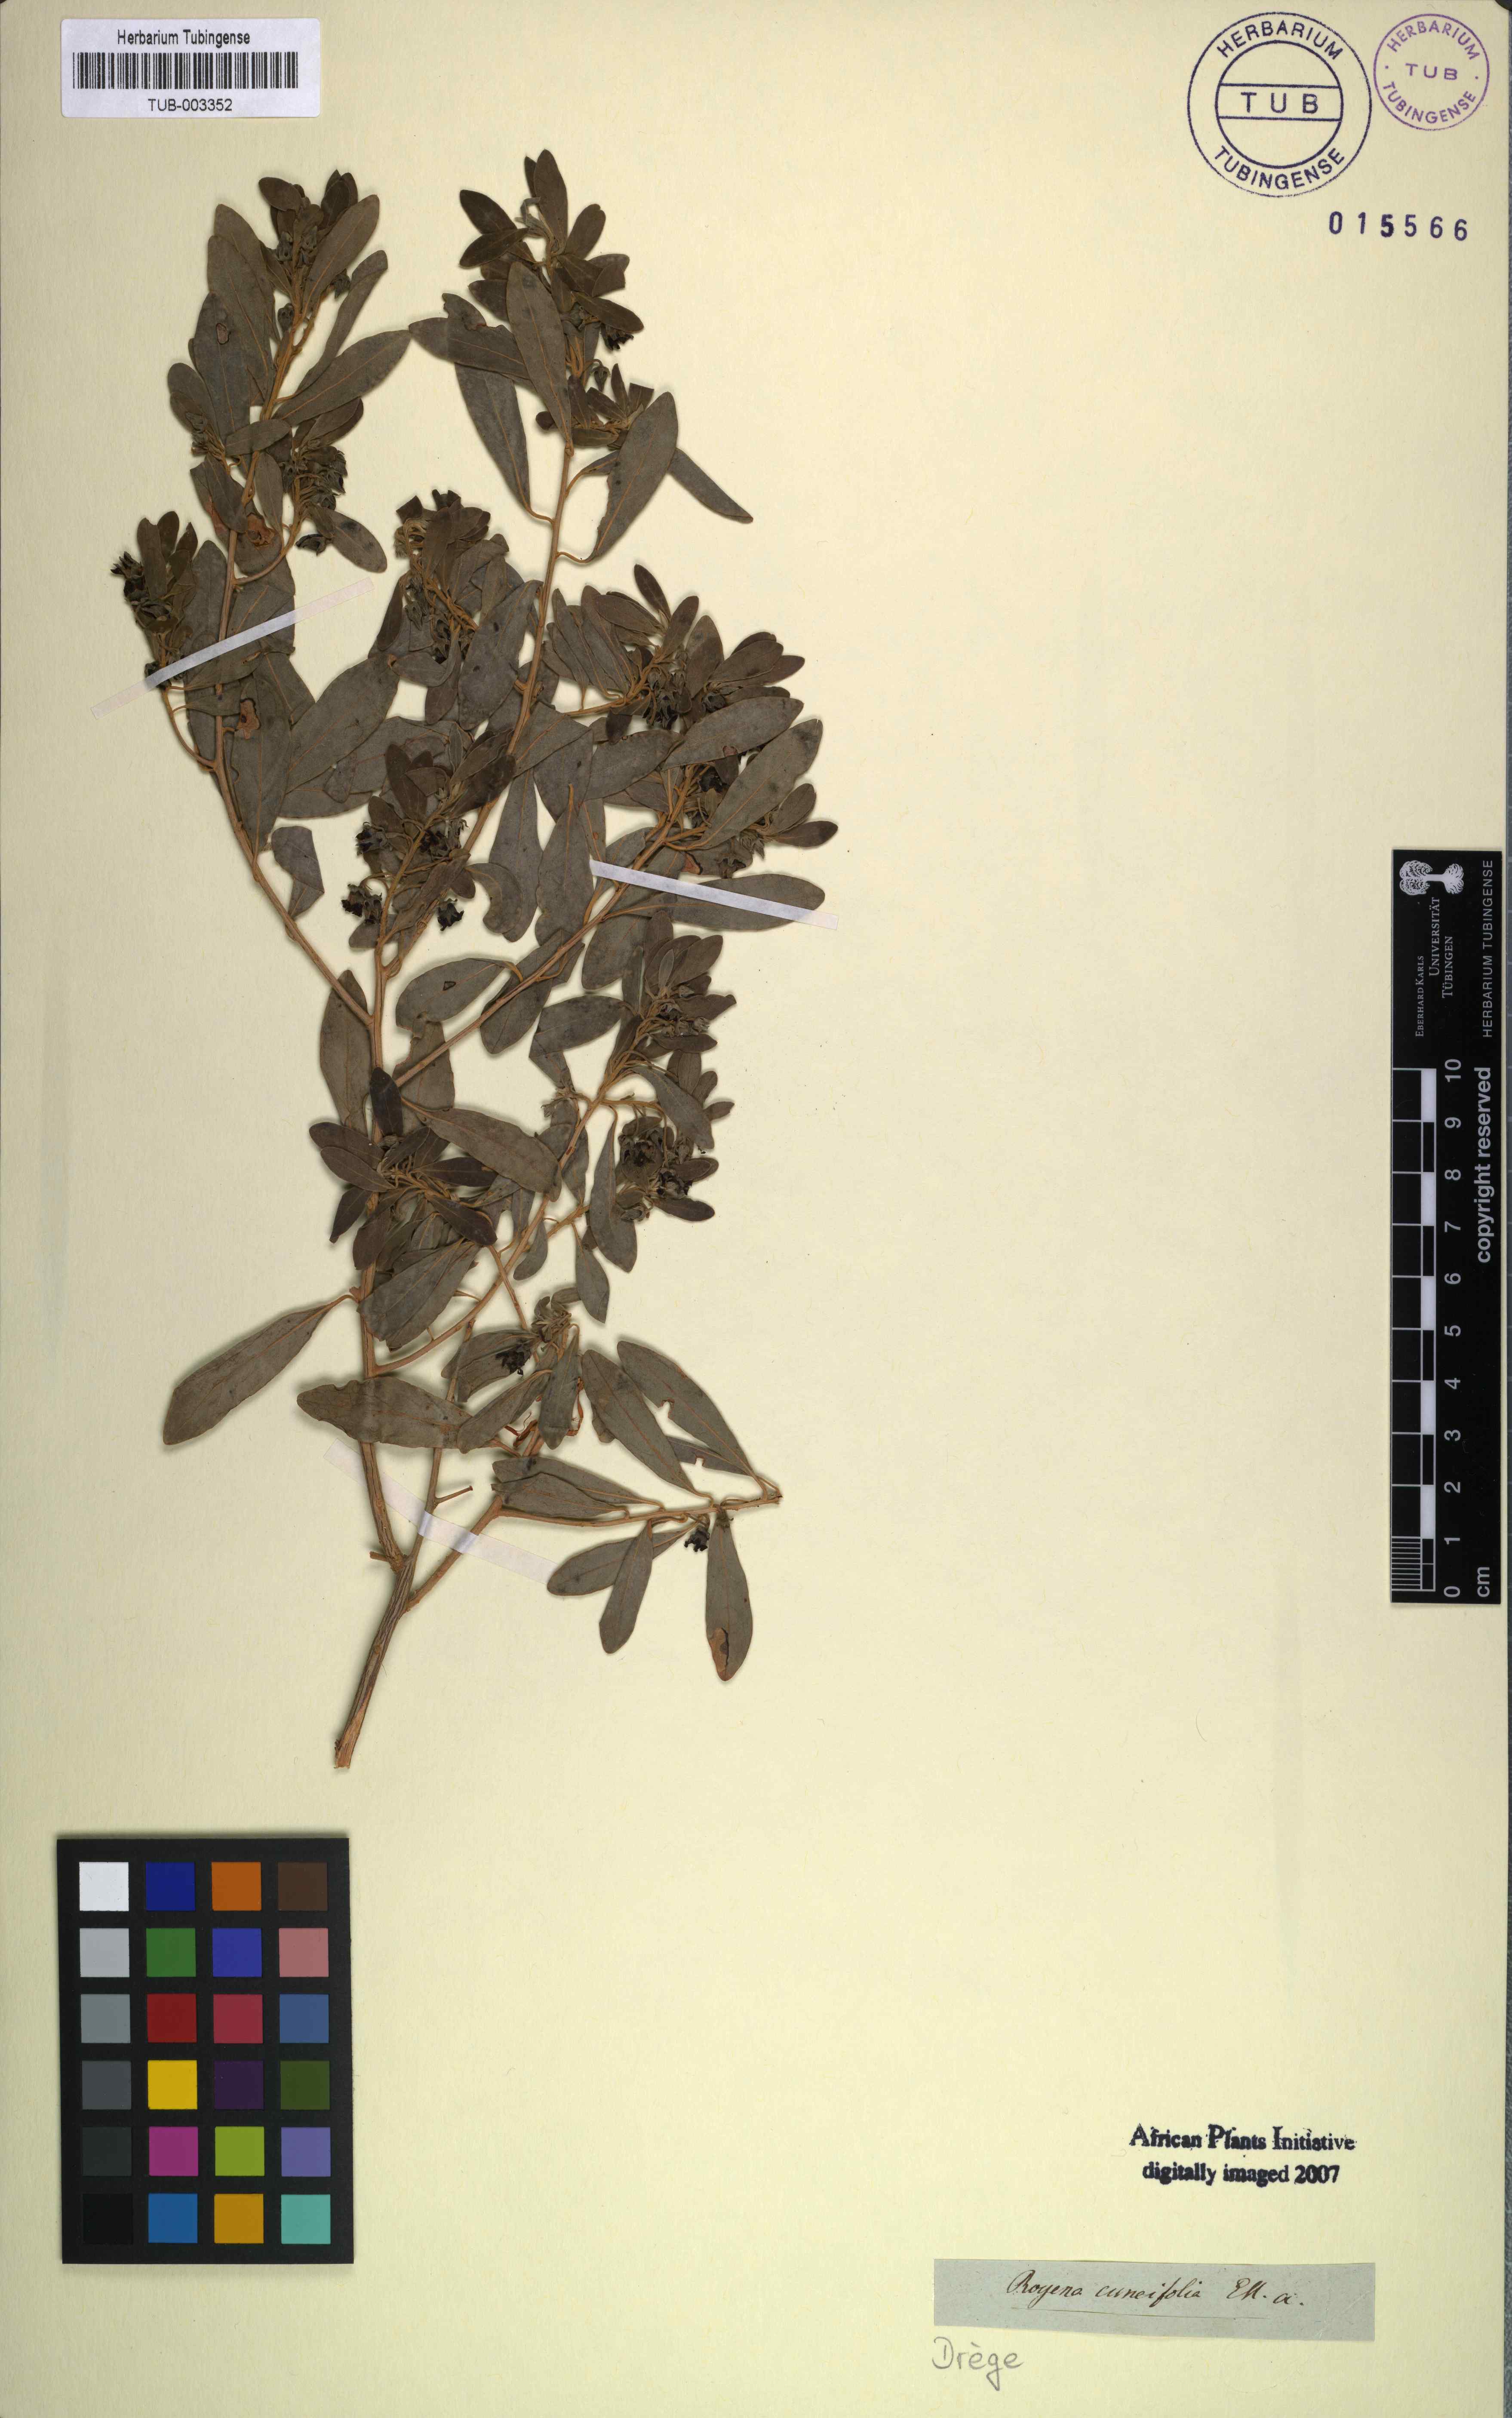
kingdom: Plantae
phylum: Tracheophyta
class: Magnoliopsida
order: Ericales
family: Ebenaceae
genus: Diospyros
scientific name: Diospyros pallens
